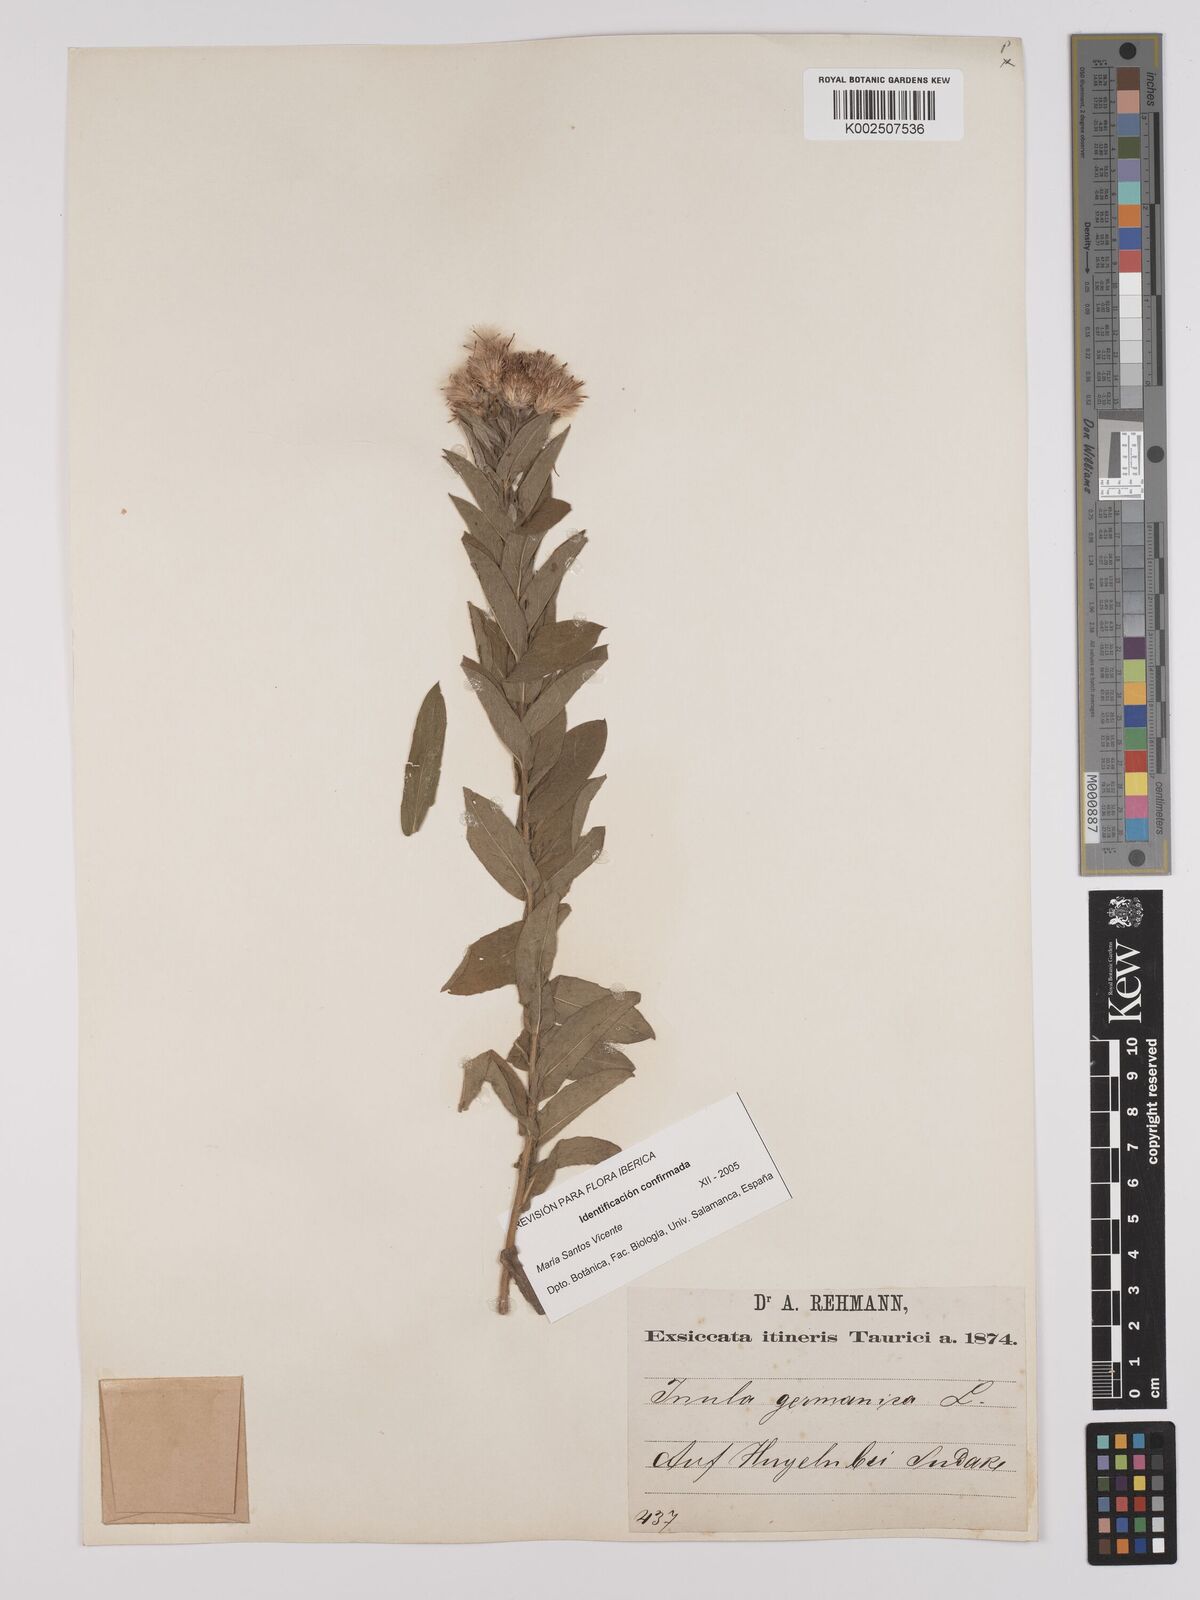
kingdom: Plantae
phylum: Tracheophyta
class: Magnoliopsida
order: Asterales
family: Asteraceae
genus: Pentanema
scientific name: Pentanema germanicum
